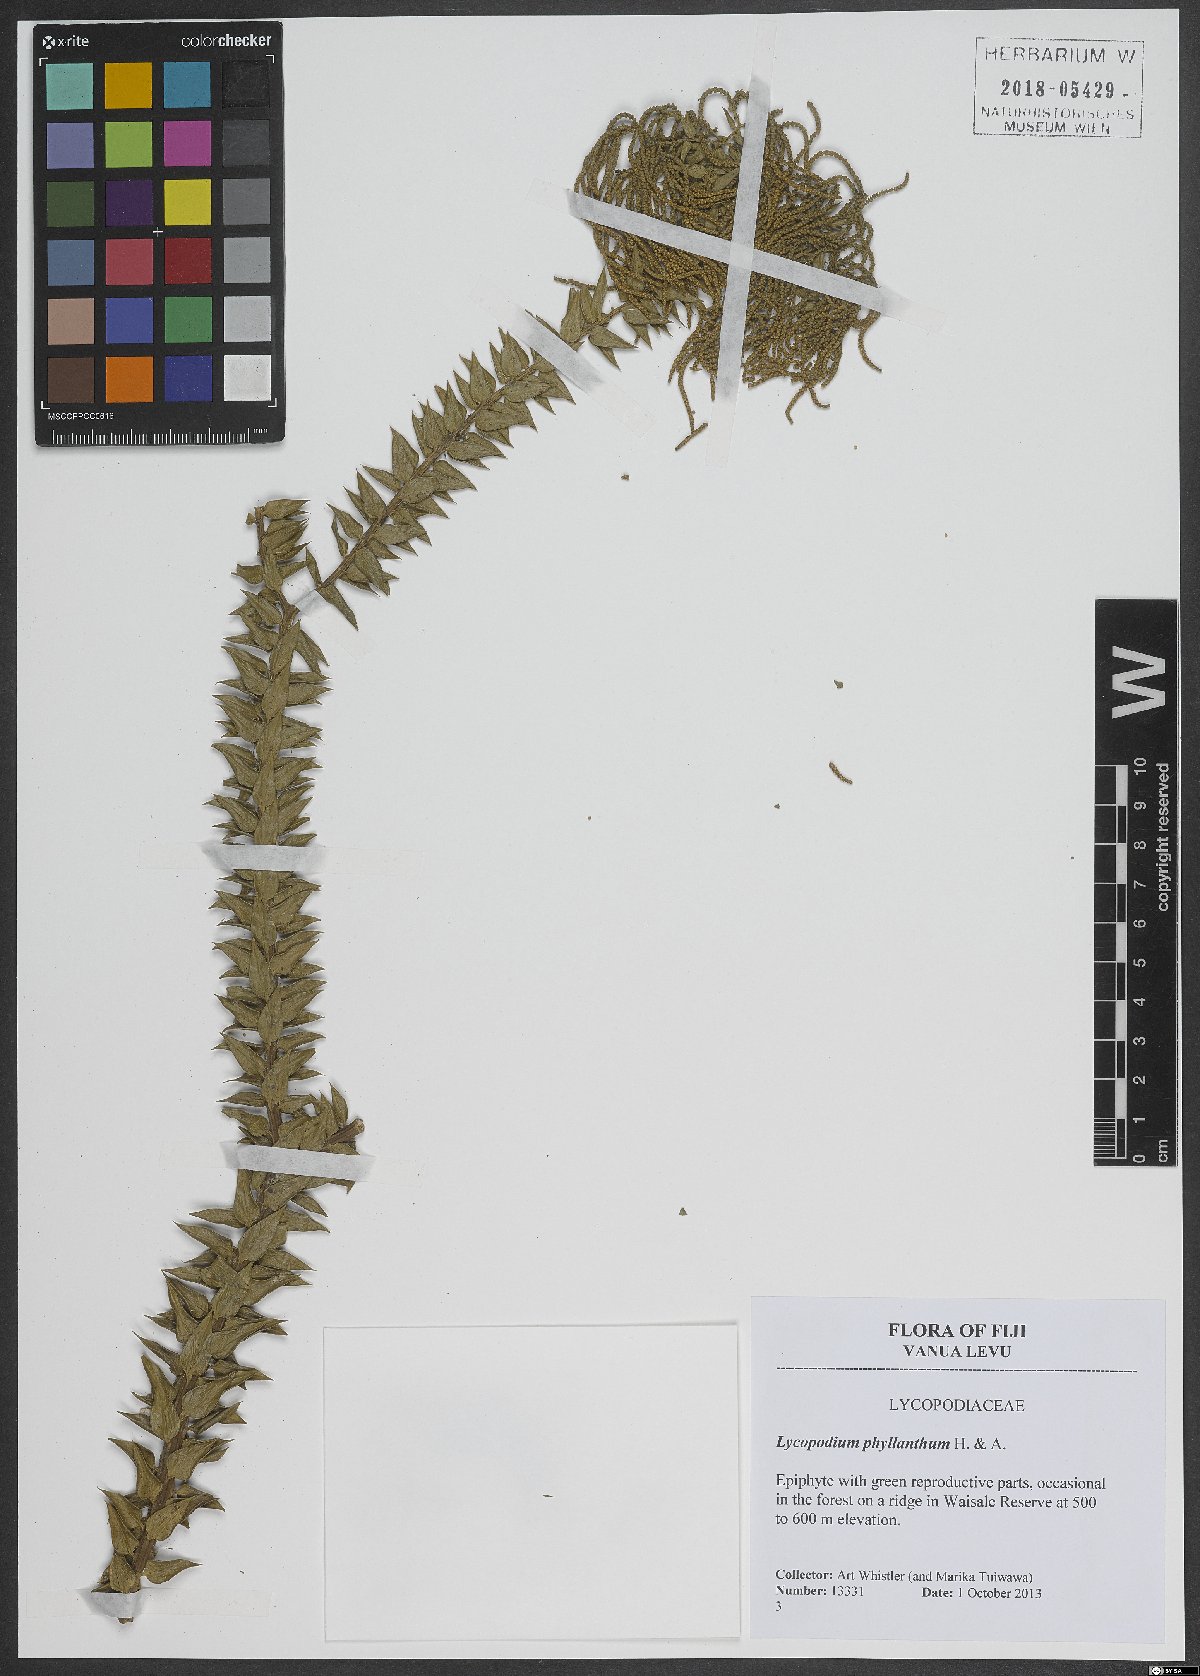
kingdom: Plantae
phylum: Tracheophyta
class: Lycopodiopsida
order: Lycopodiales
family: Lycopodiaceae
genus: Phlegmariurus
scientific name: Phlegmariurus phyllanthus
